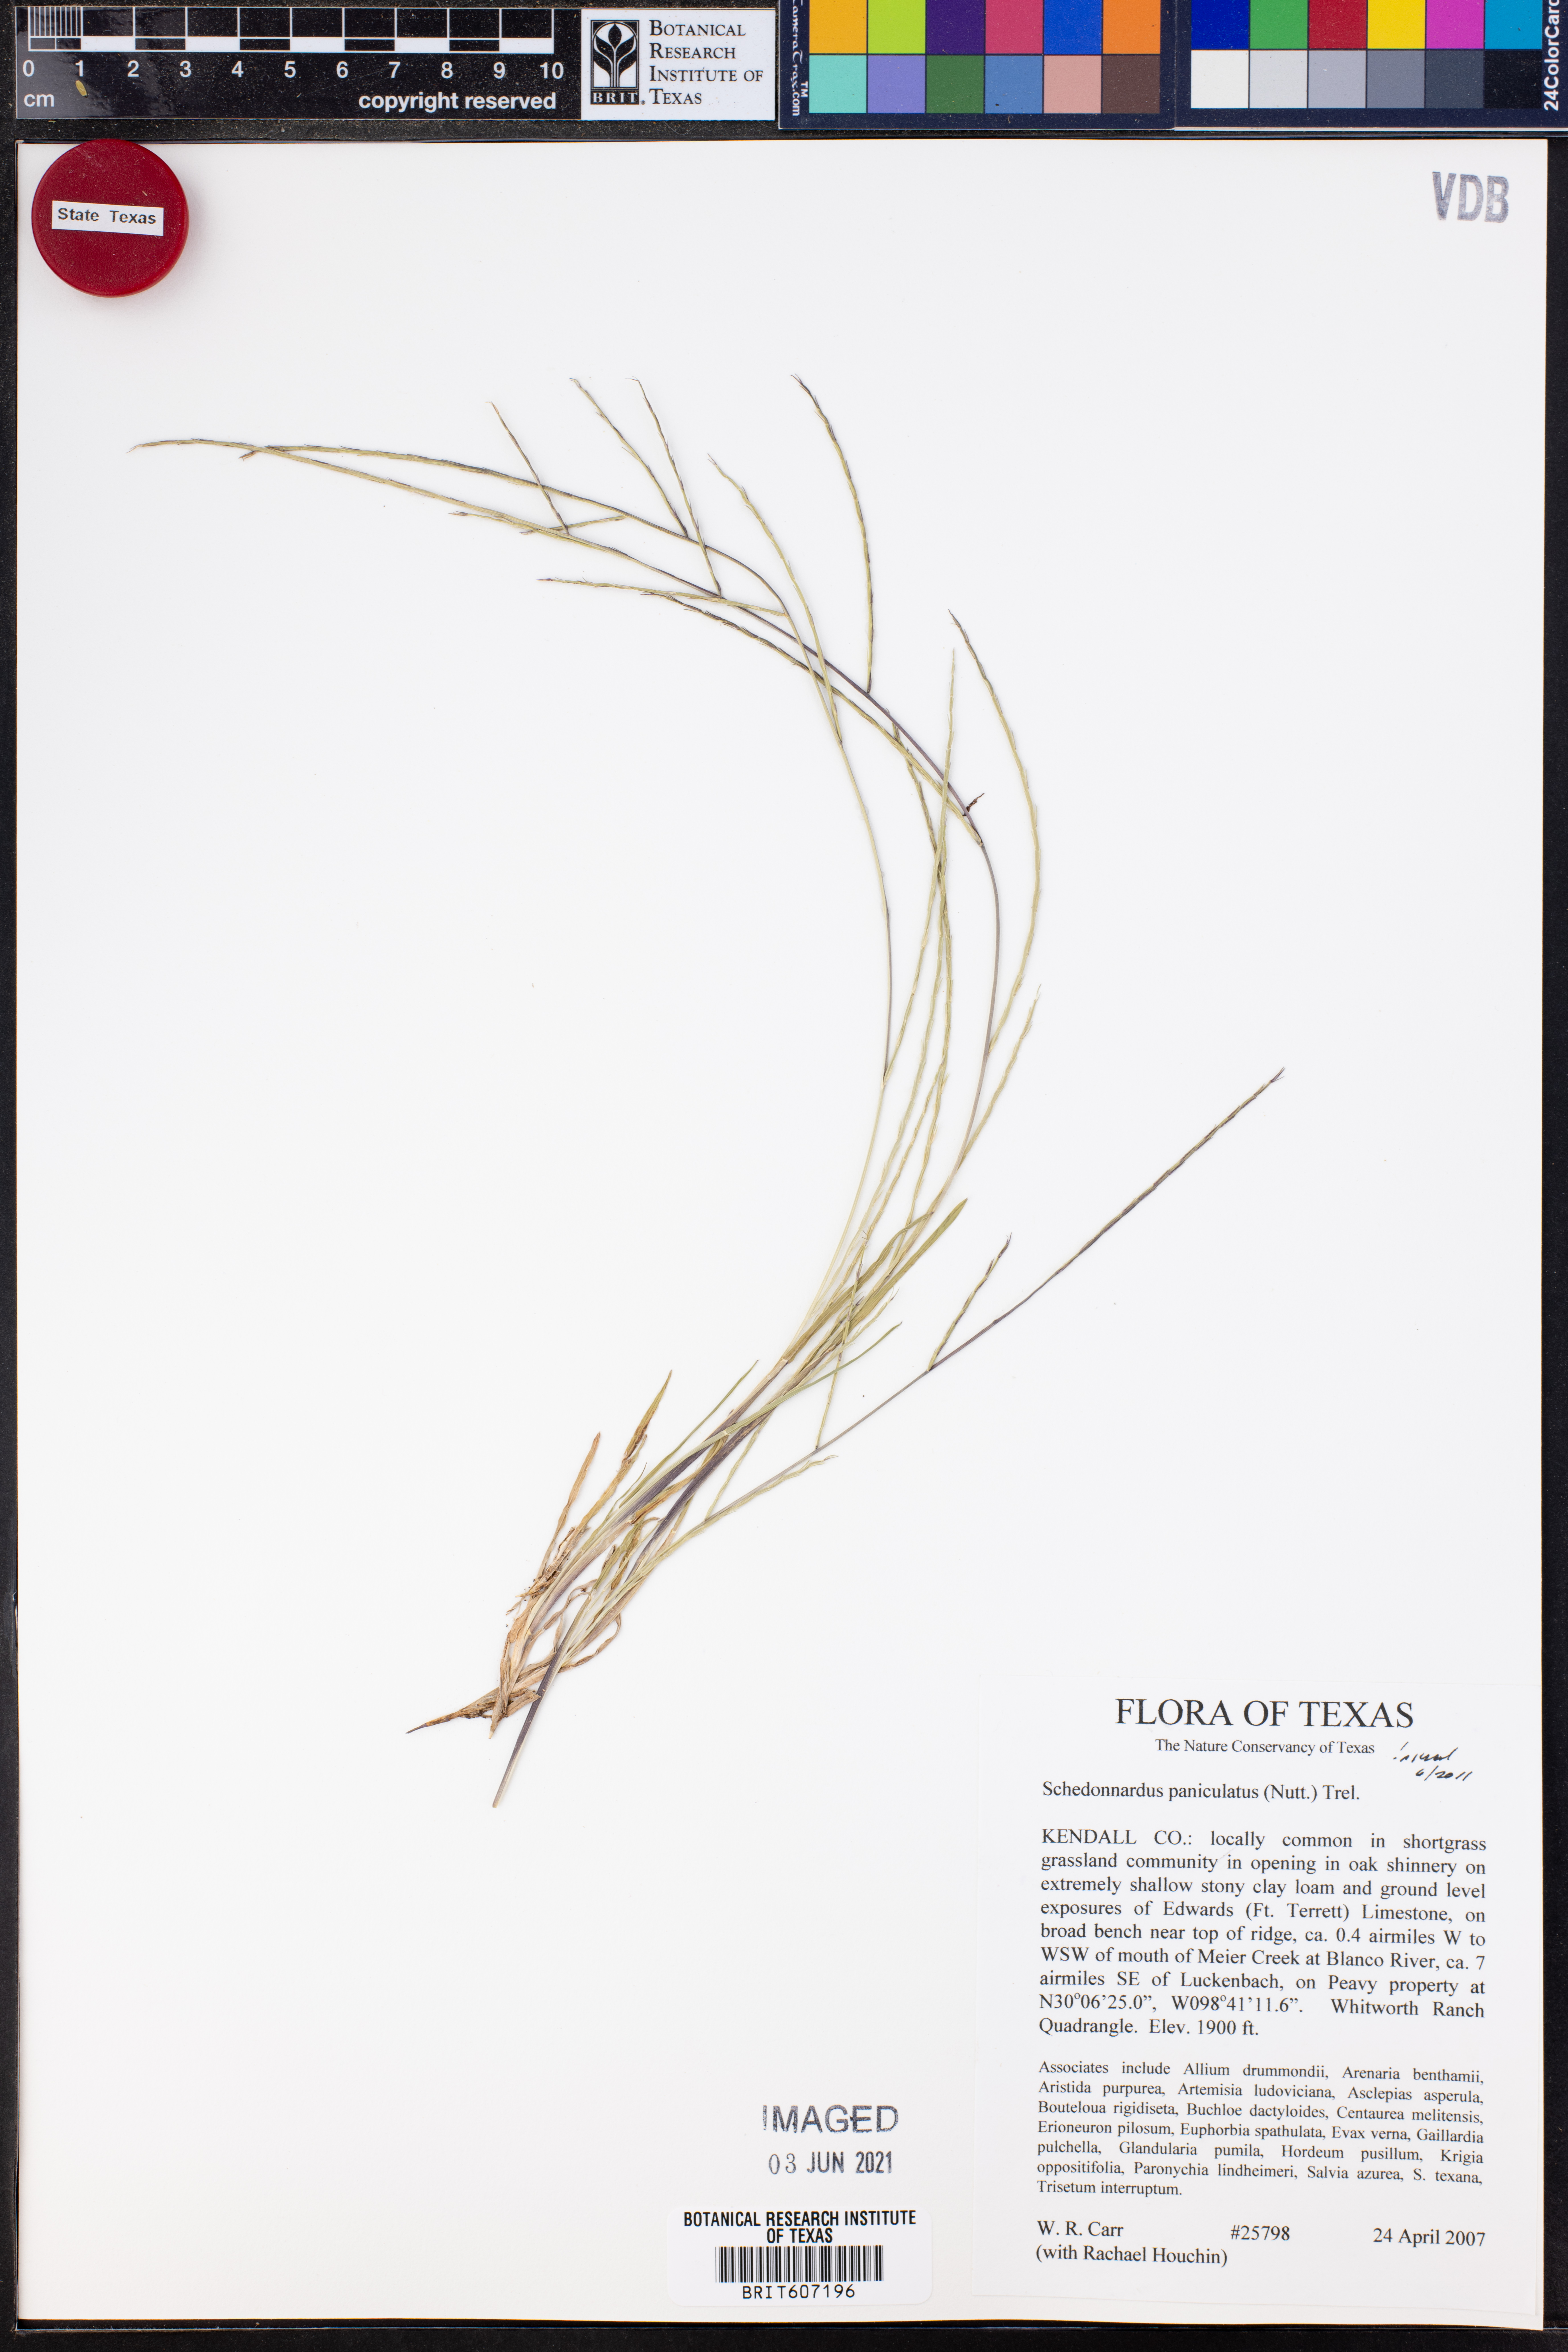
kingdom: Plantae
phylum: Tracheophyta
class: Liliopsida
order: Poales
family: Poaceae
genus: Muhlenbergia
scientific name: Muhlenbergia paniculata
